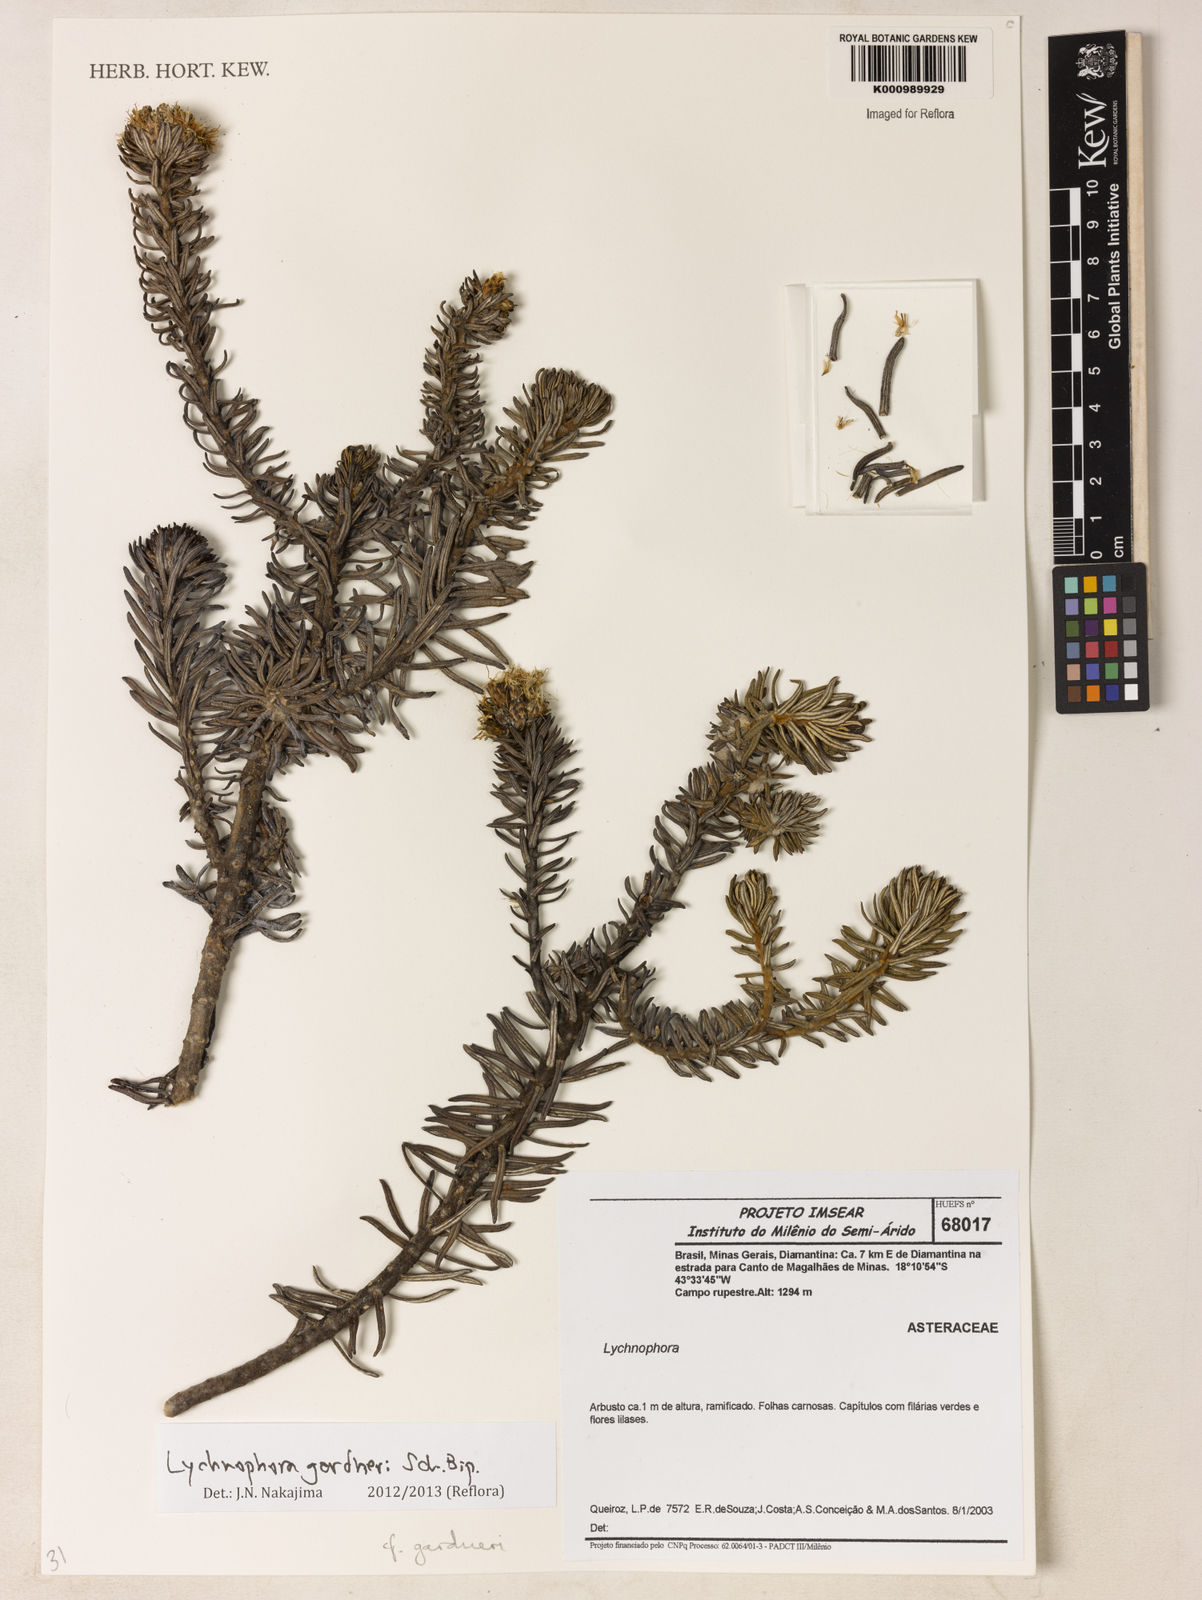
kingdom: Plantae
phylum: Tracheophyta
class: Magnoliopsida
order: Asterales
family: Asteraceae
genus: Lychnophora
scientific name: Lychnophora gardneri
